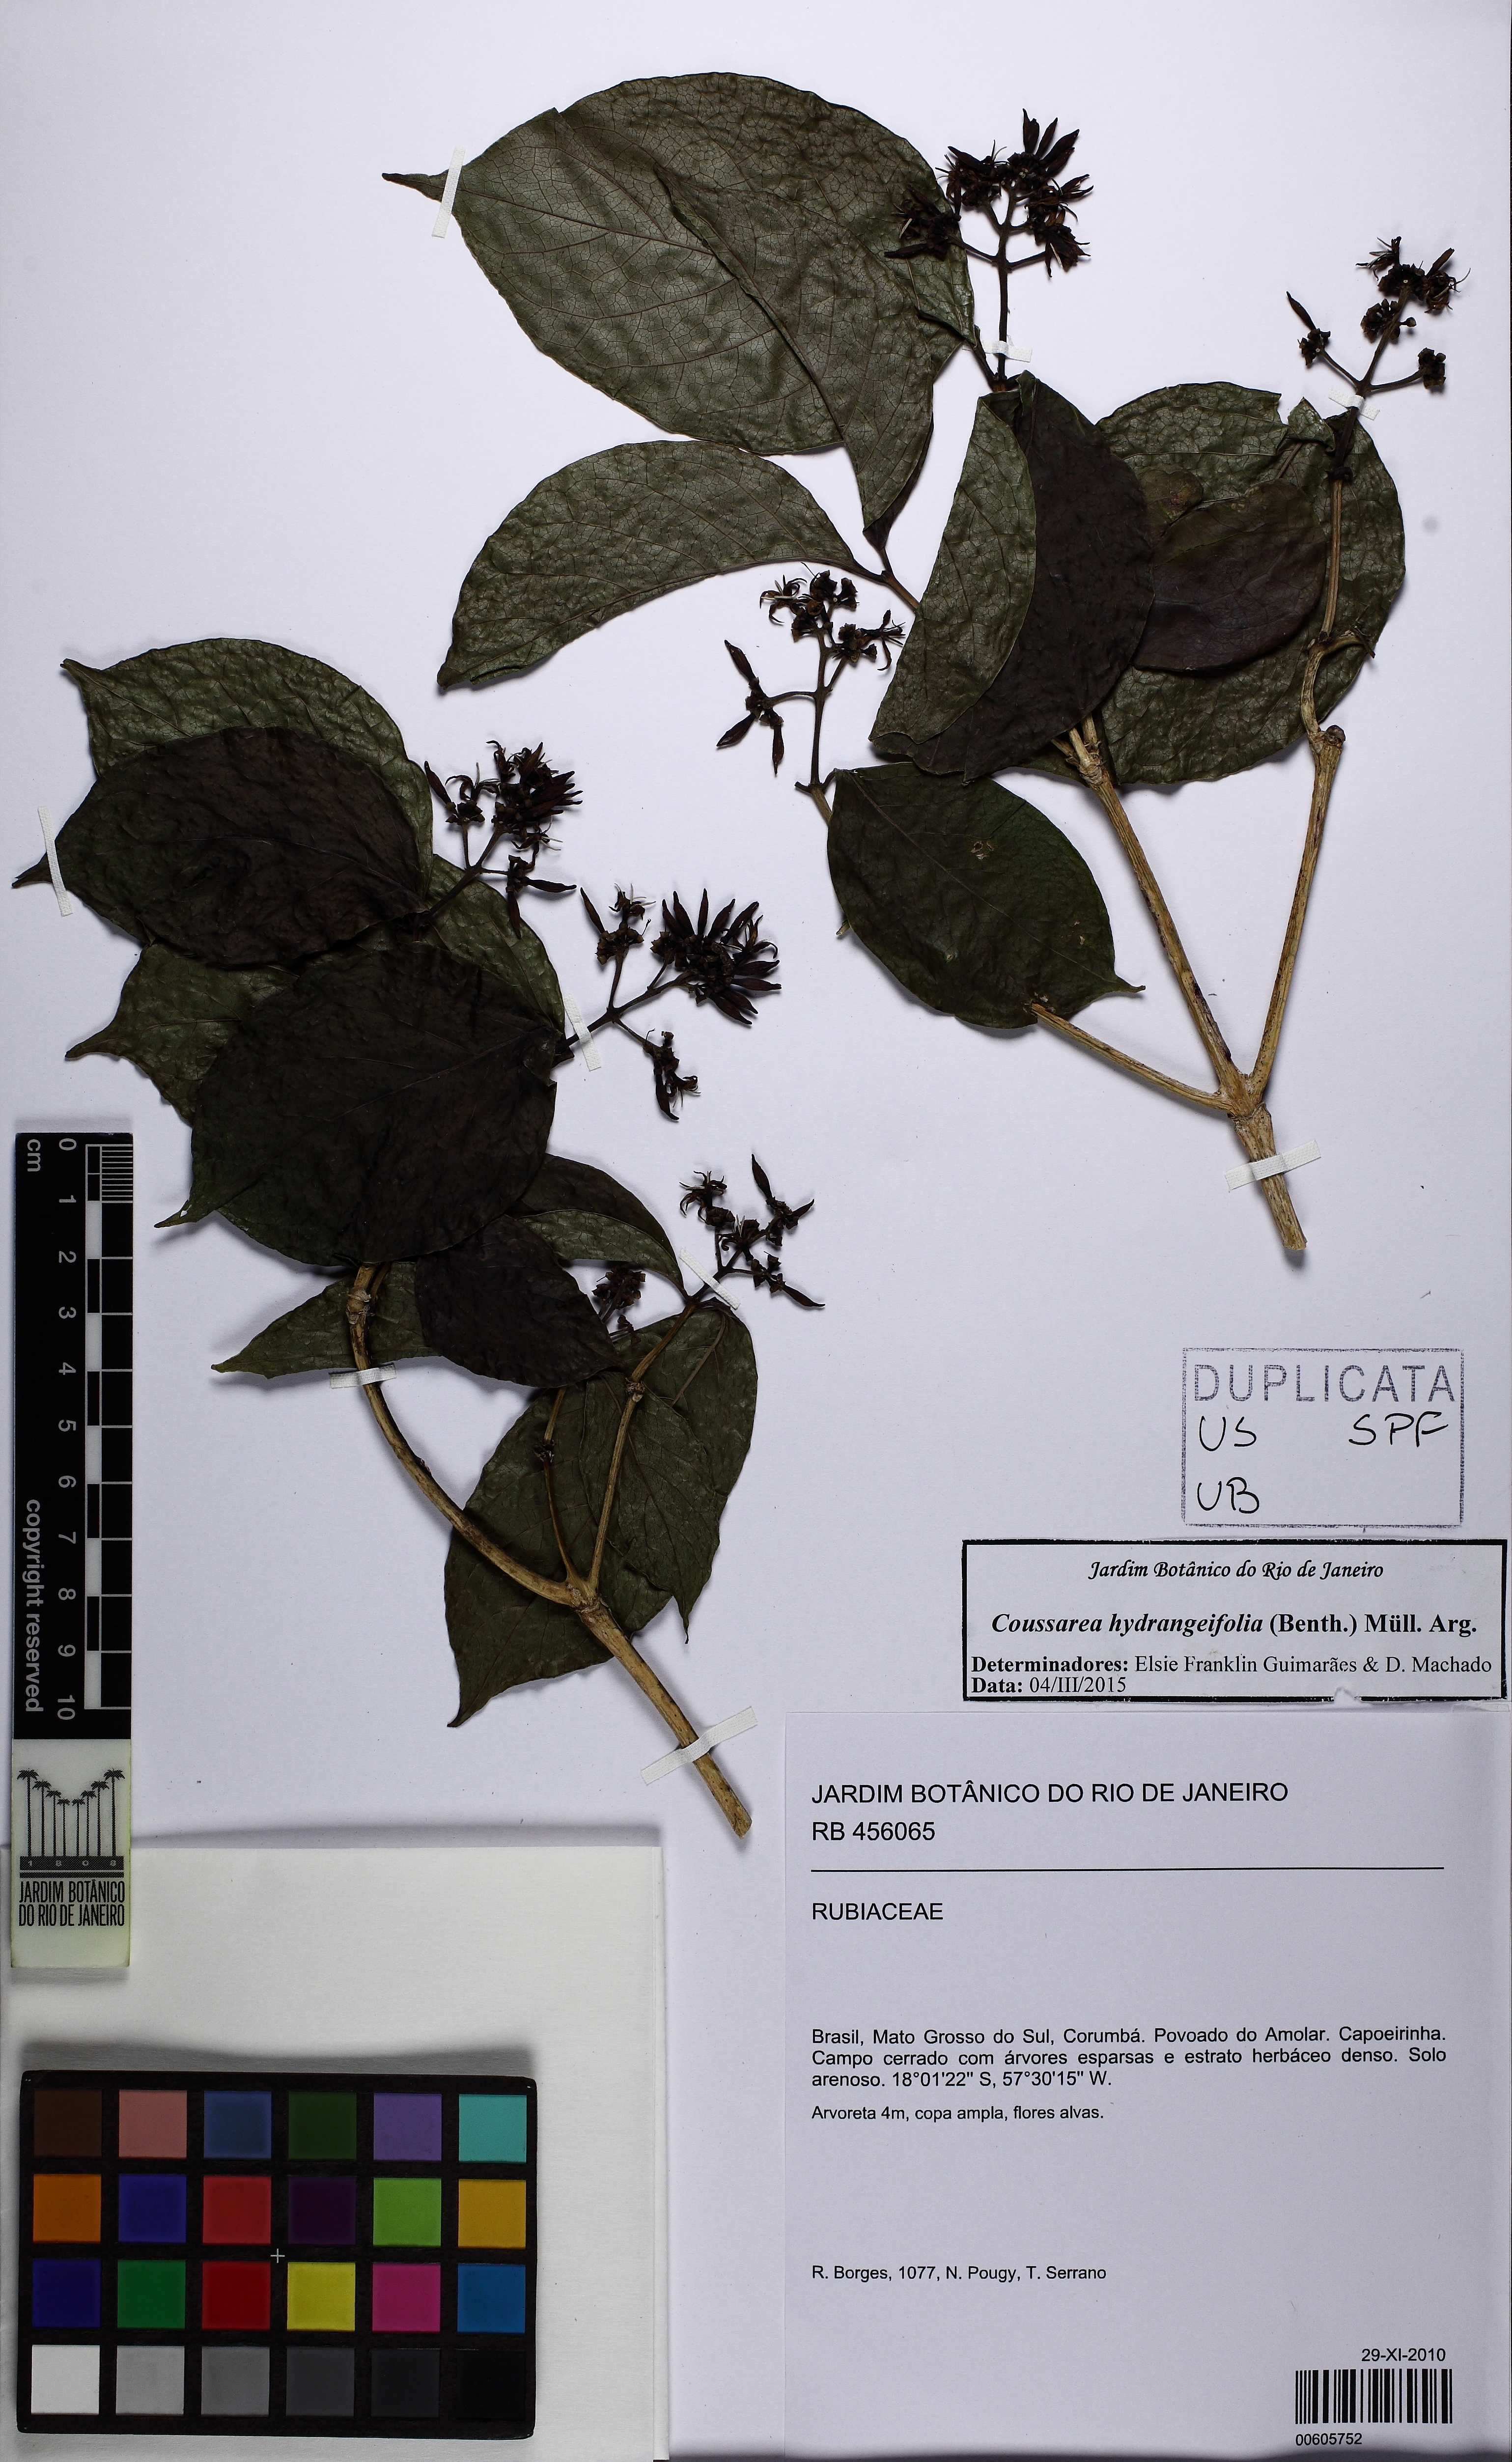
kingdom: Plantae
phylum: Tracheophyta
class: Magnoliopsida
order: Gentianales
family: Rubiaceae
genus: Coussarea
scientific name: Coussarea hydrangeifolia
